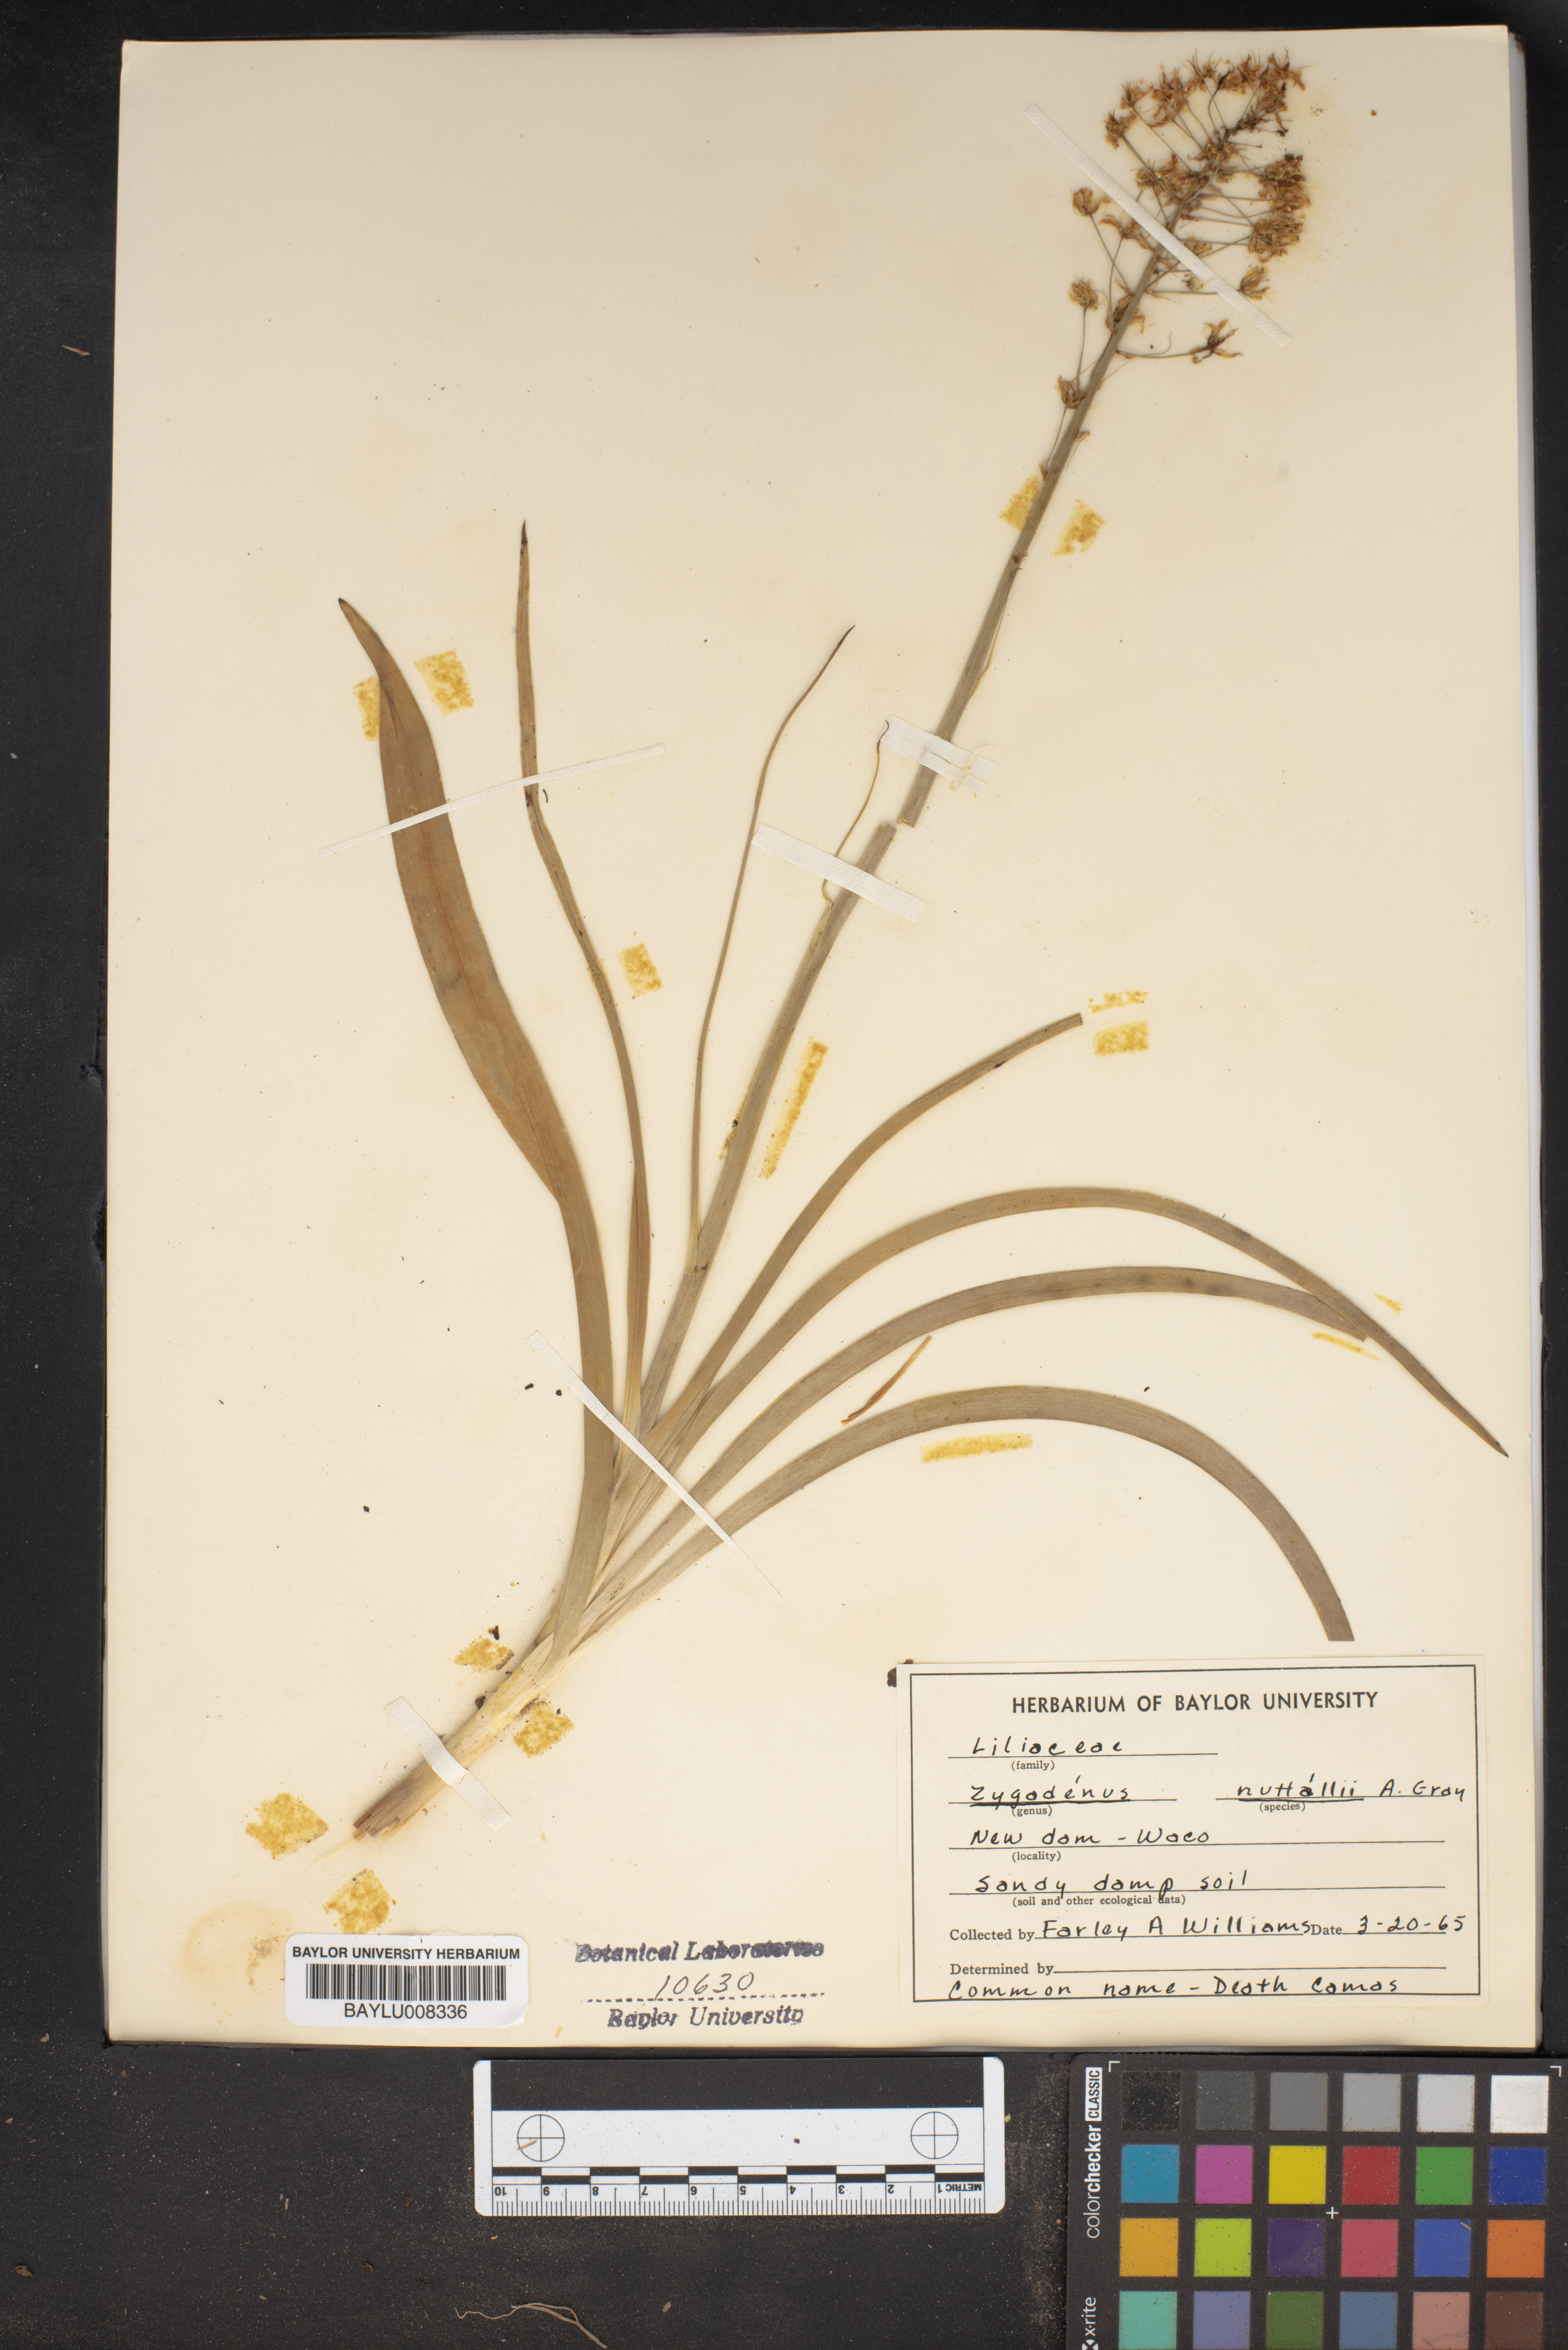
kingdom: Plantae
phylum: Tracheophyta
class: Liliopsida
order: Liliales
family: Melanthiaceae
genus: Toxicoscordion
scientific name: Toxicoscordion nuttallii
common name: Poison sego
